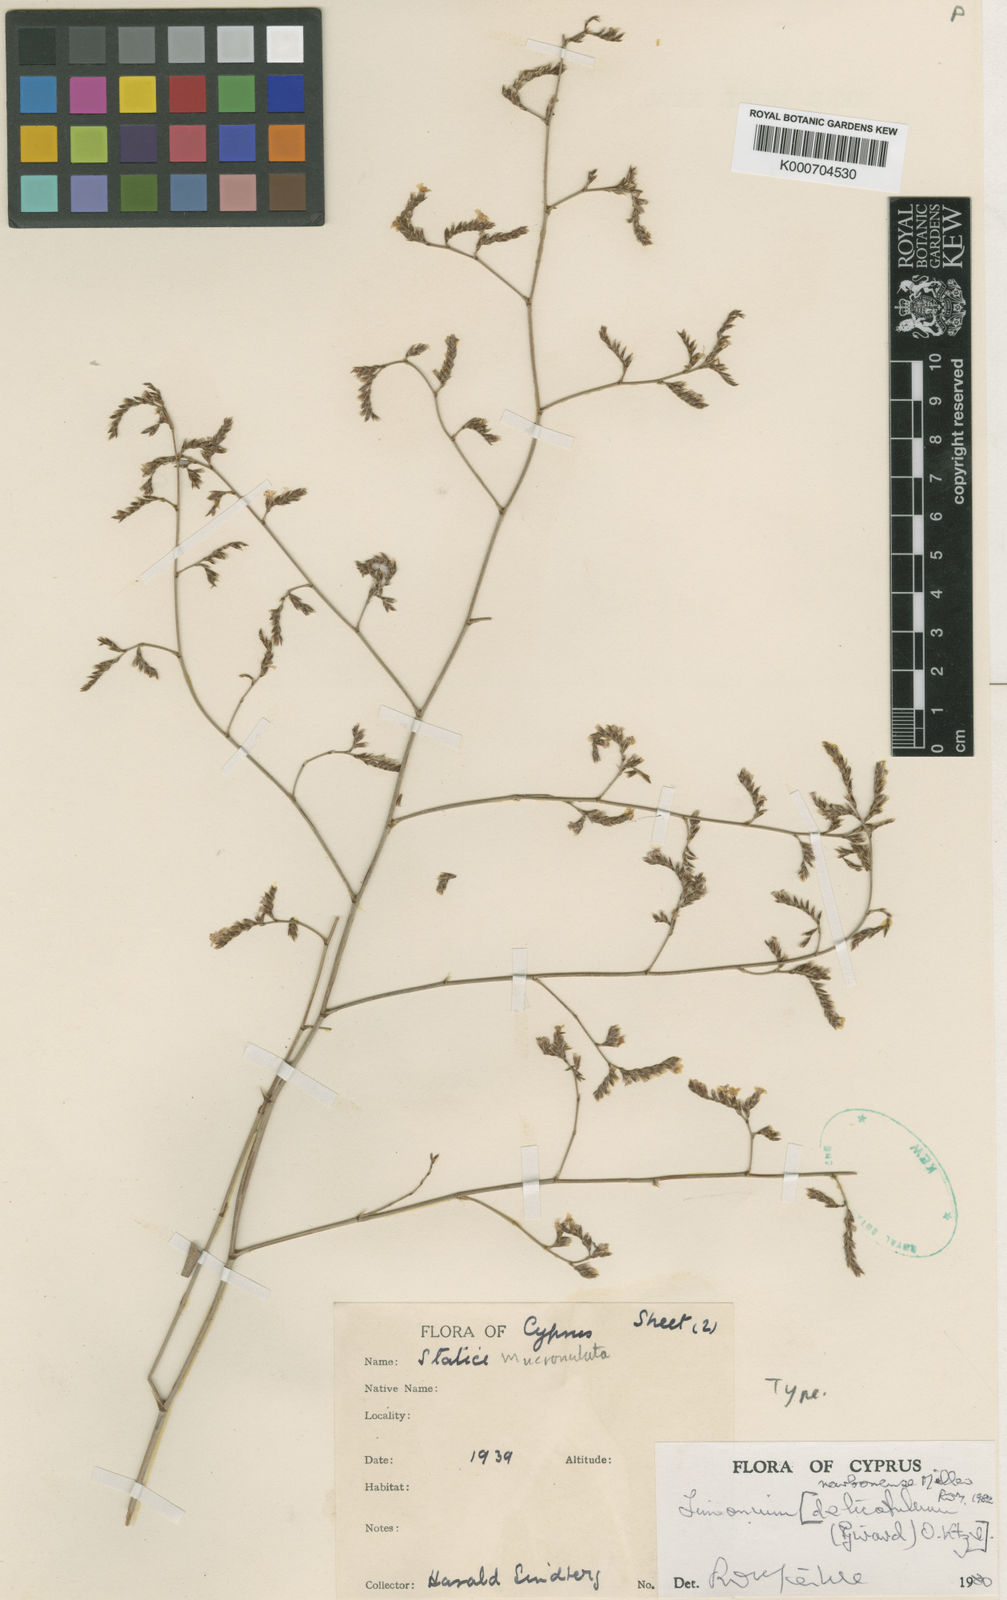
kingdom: Plantae
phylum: Tracheophyta
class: Magnoliopsida
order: Caryophyllales
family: Plumbaginaceae
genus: Limonium
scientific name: Limonium narbonense
